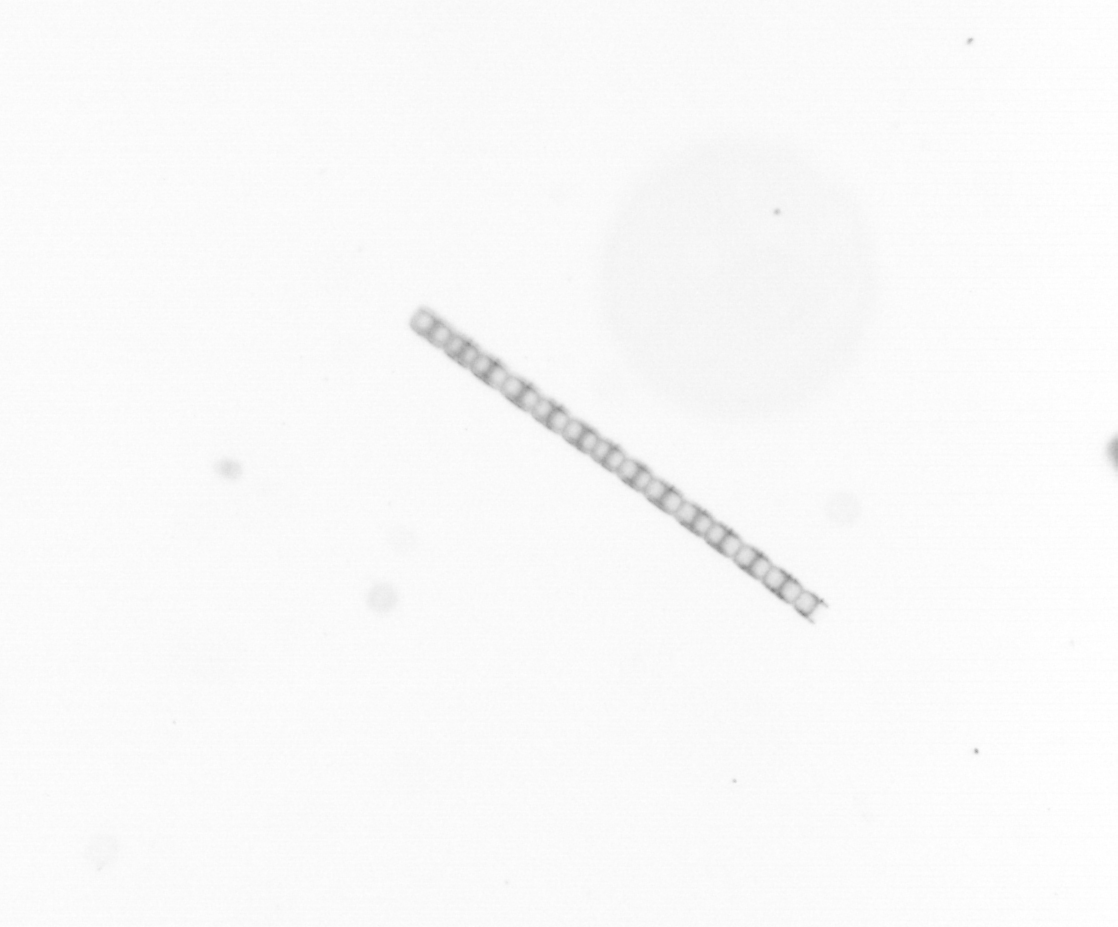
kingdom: Chromista
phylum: Ochrophyta
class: Bacillariophyceae
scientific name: Bacillariophyceae
